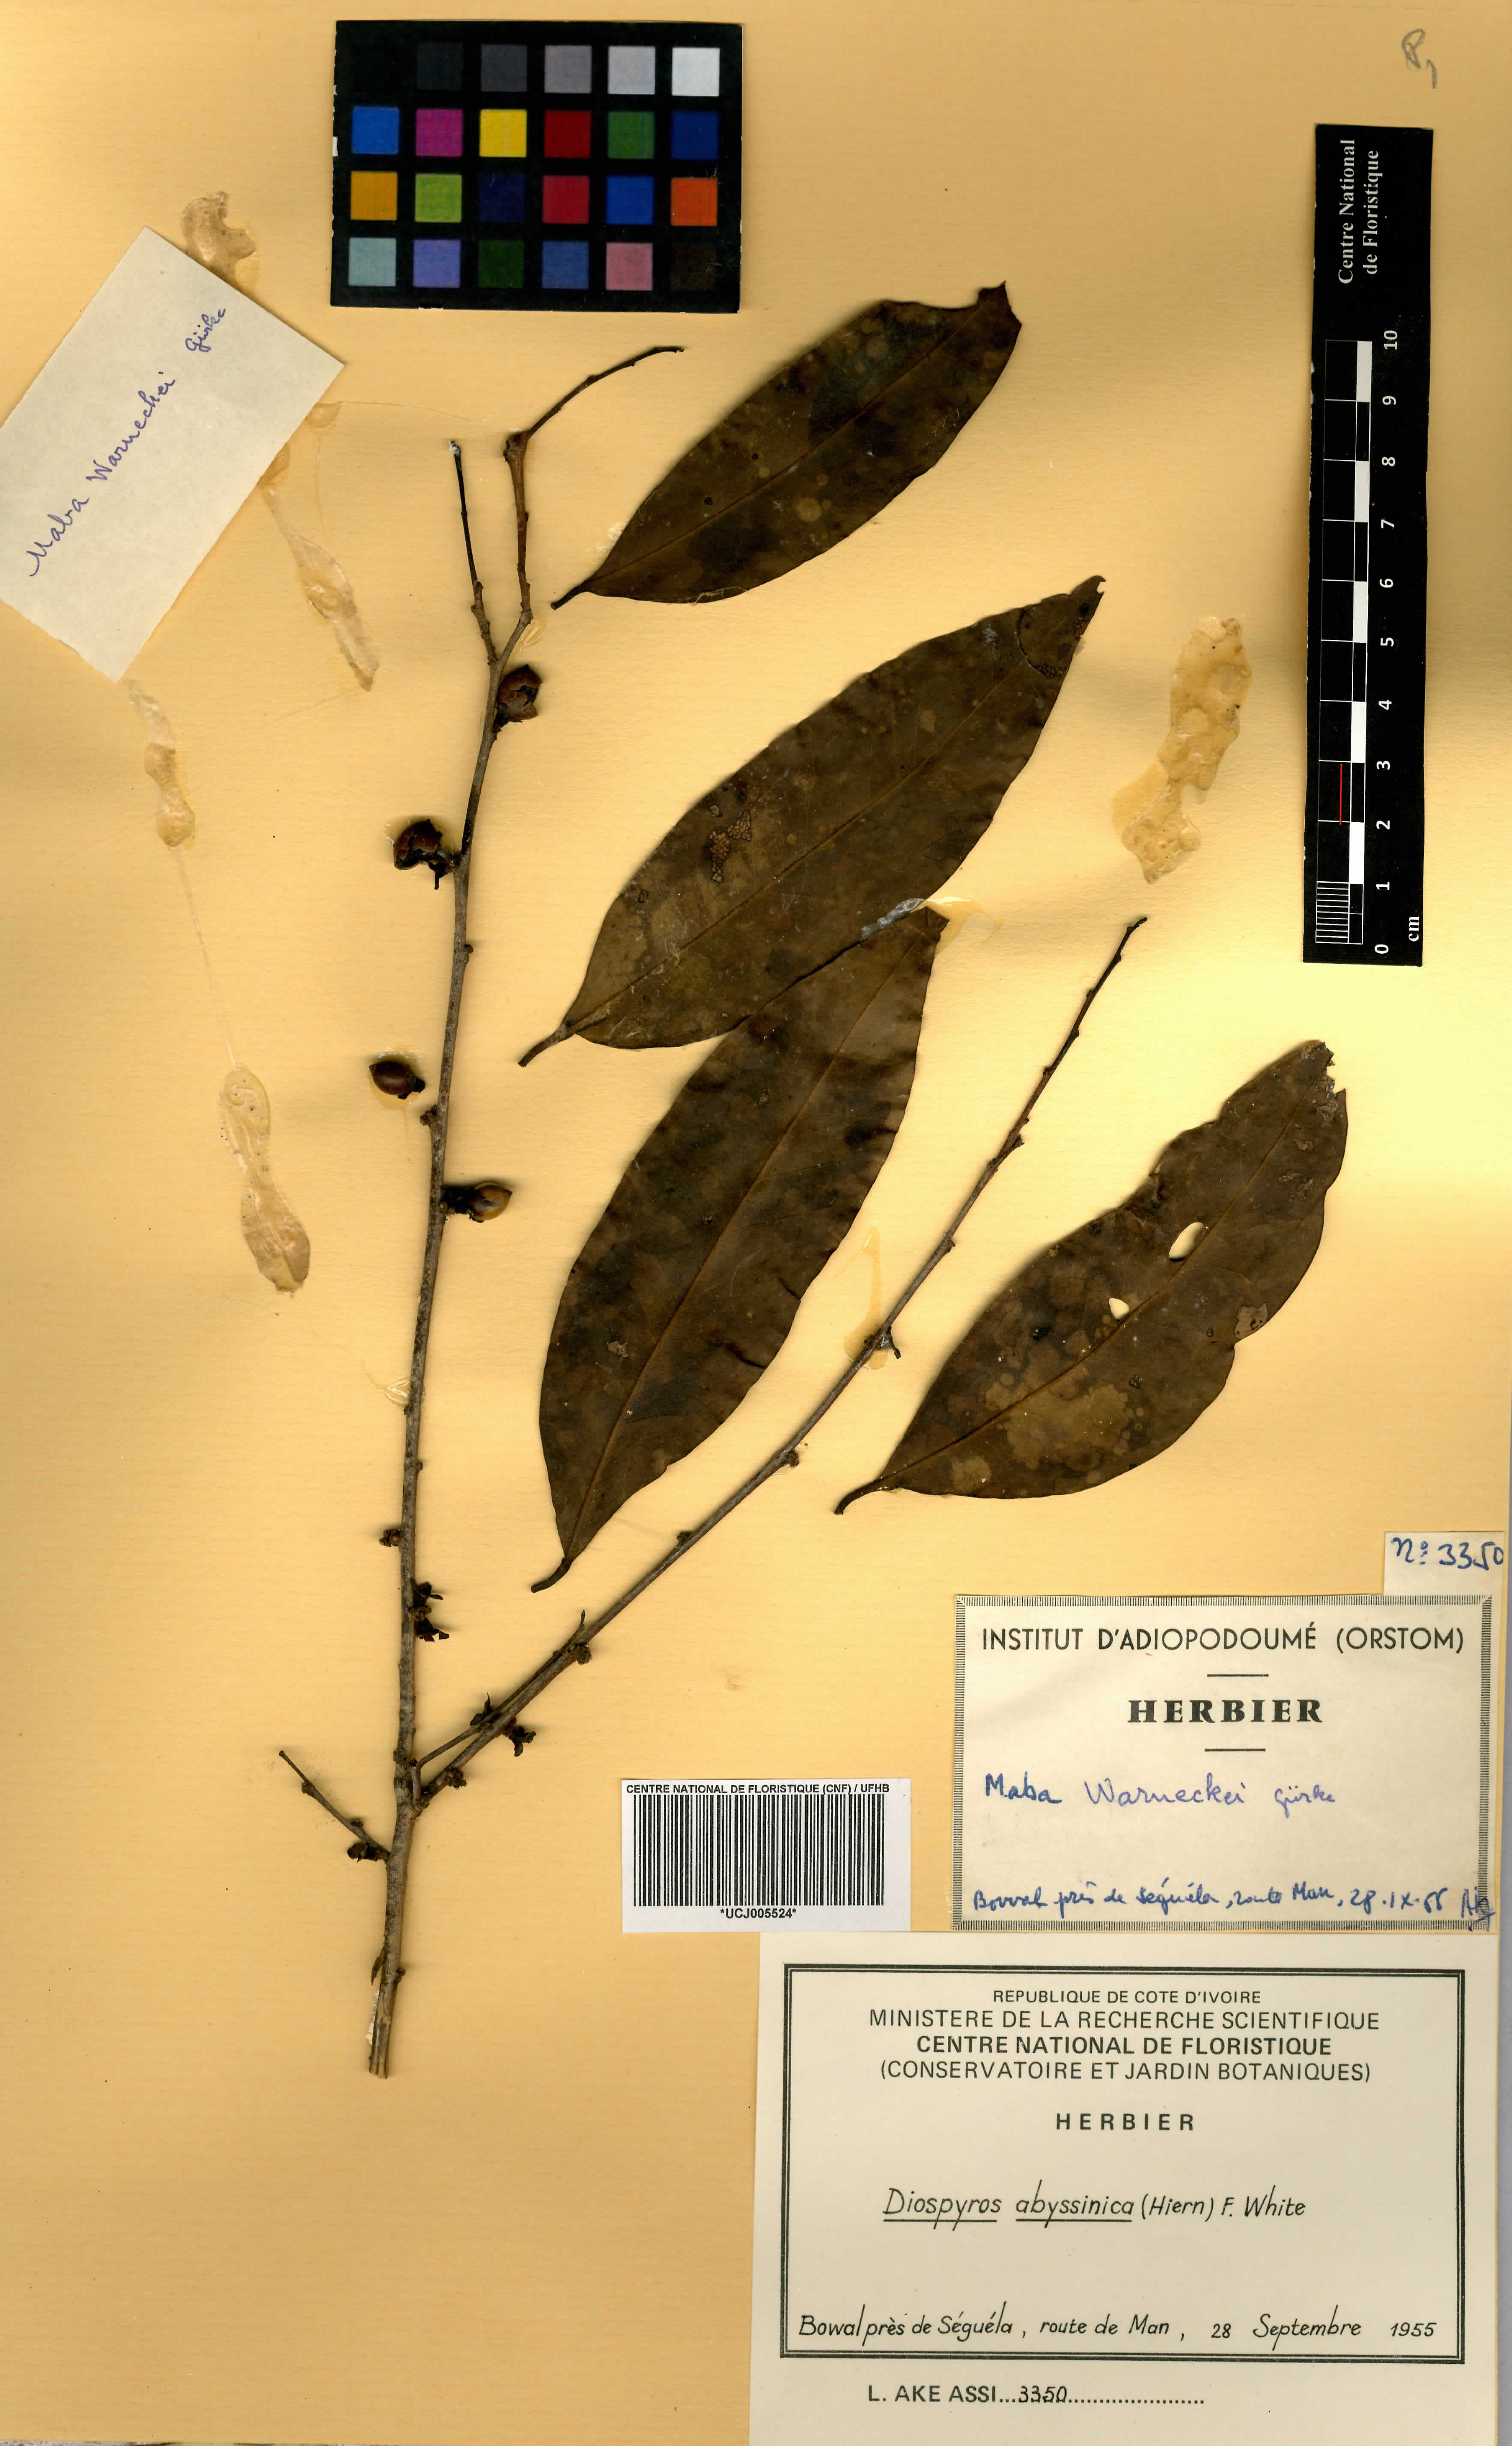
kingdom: Plantae
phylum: Tracheophyta
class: Magnoliopsida
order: Ericales
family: Ebenaceae
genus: Diospyros
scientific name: Diospyros abyssinica
